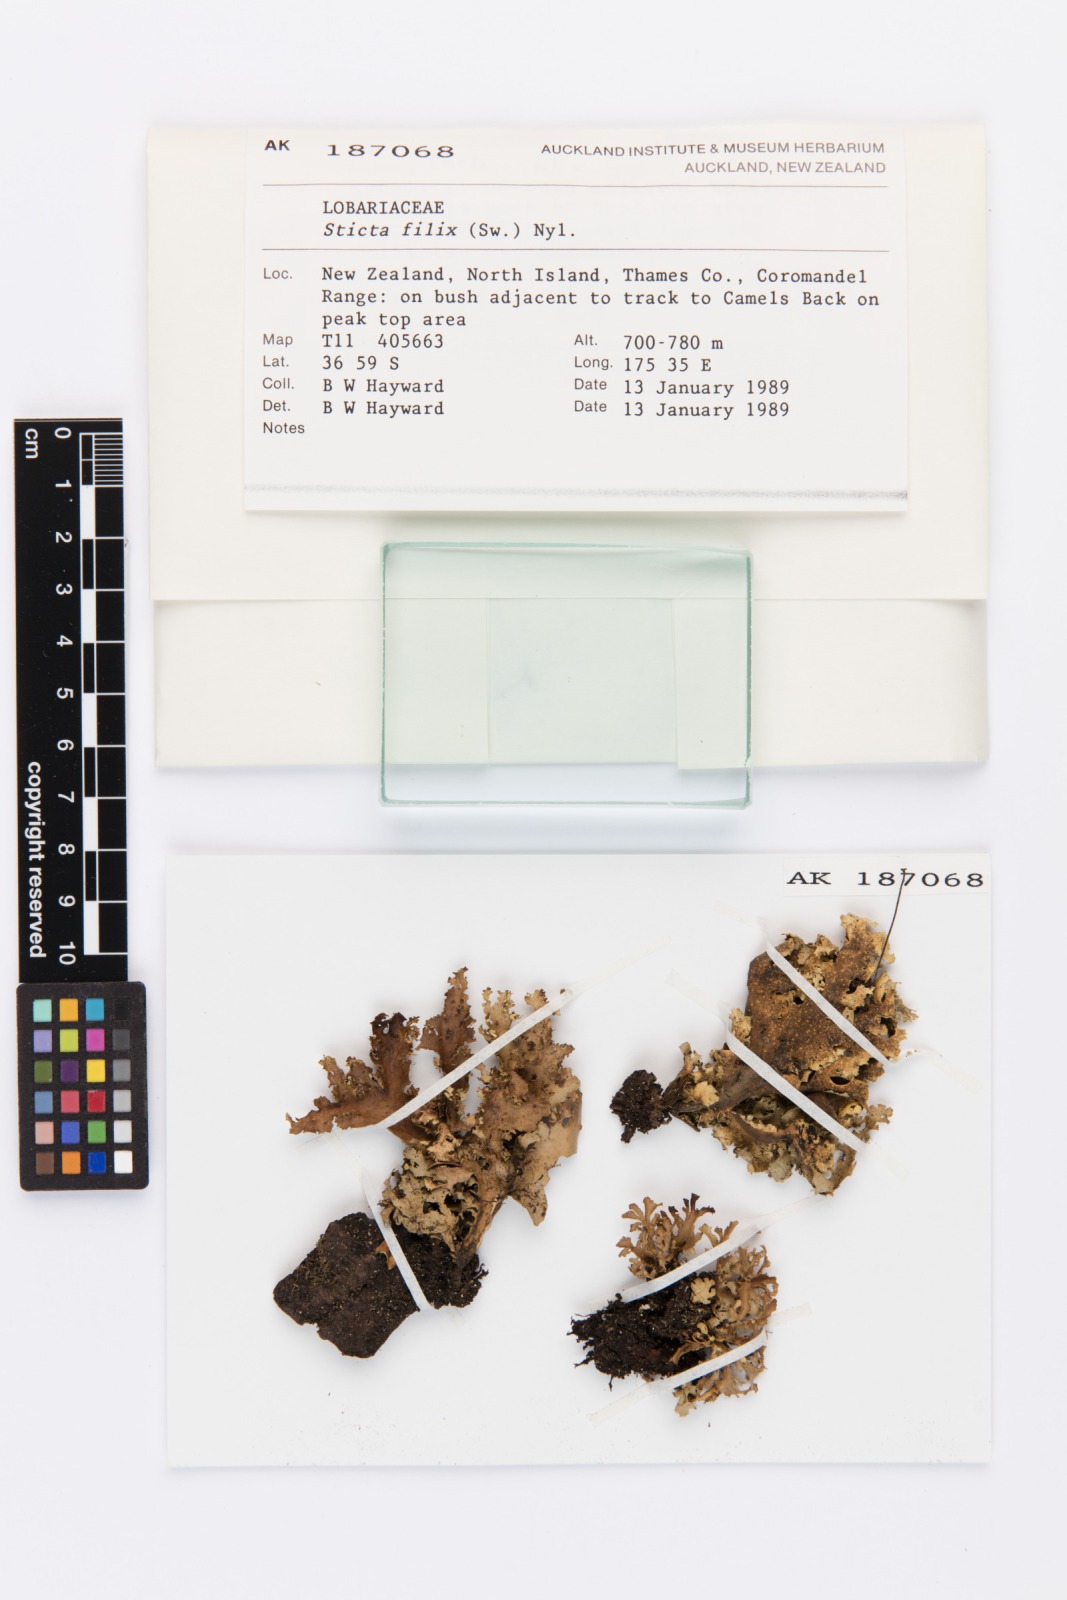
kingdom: Fungi
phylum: Ascomycota
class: Lecanoromycetes
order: Peltigerales
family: Lobariaceae
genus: Sticta
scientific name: Sticta filix
